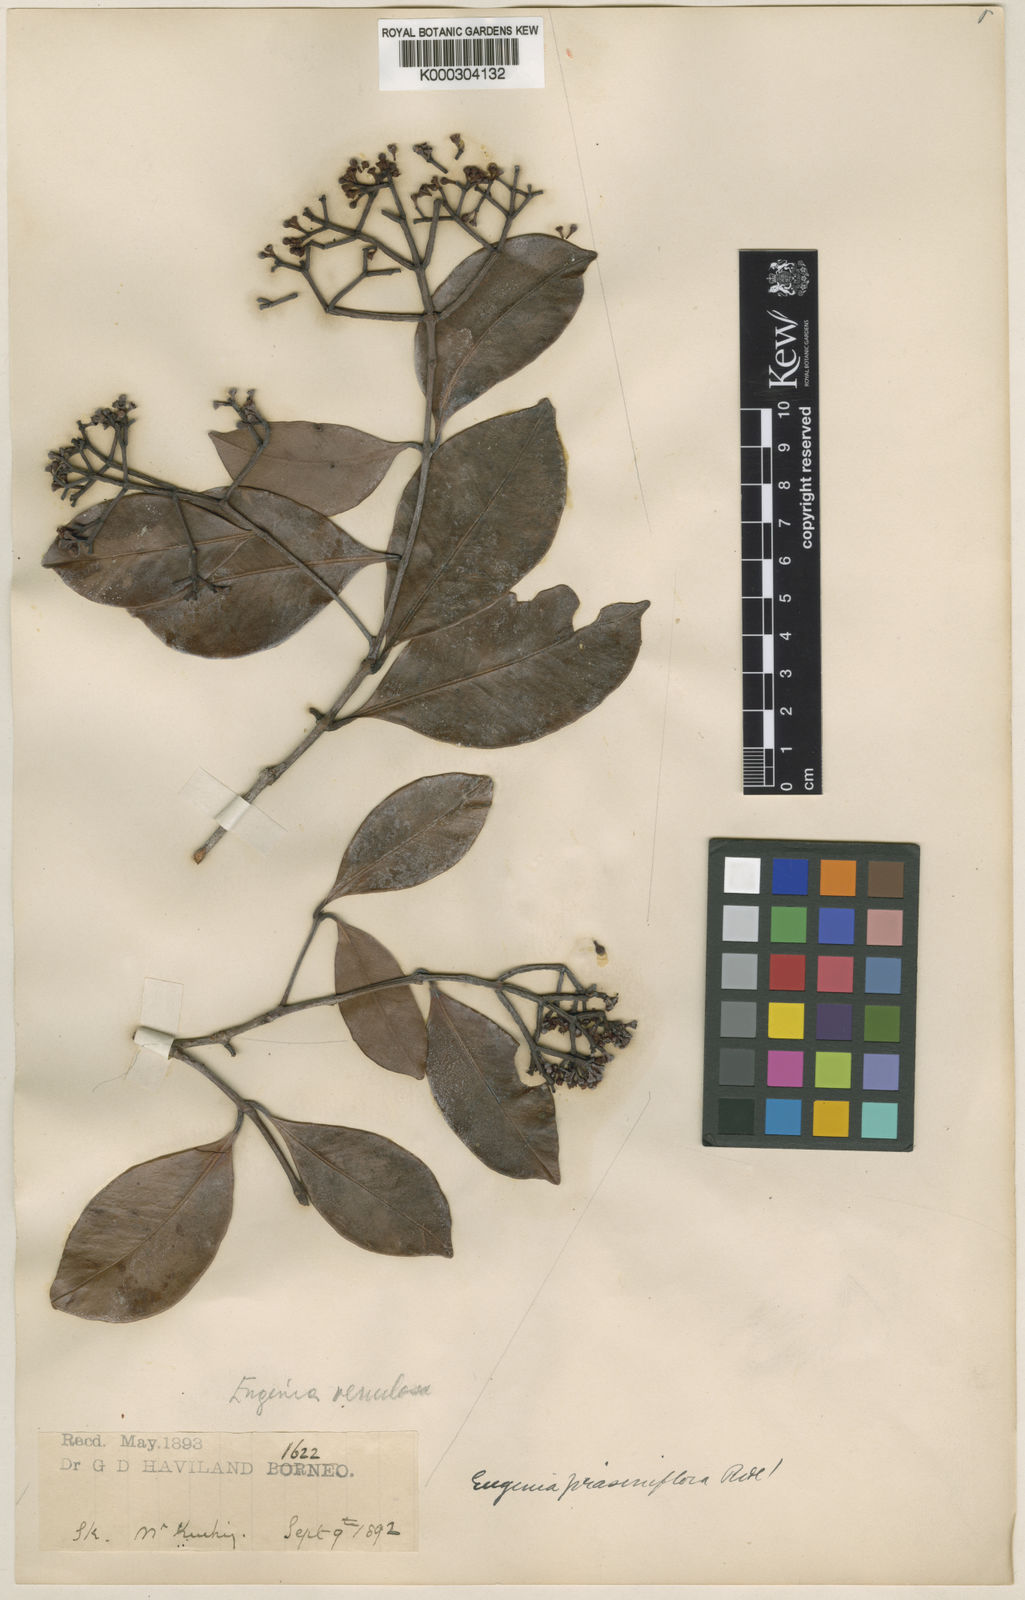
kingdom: Plantae
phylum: Tracheophyta
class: Magnoliopsida
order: Myrtales
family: Myrtaceae
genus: Syzygium
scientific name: Syzygium prasiniflorum
